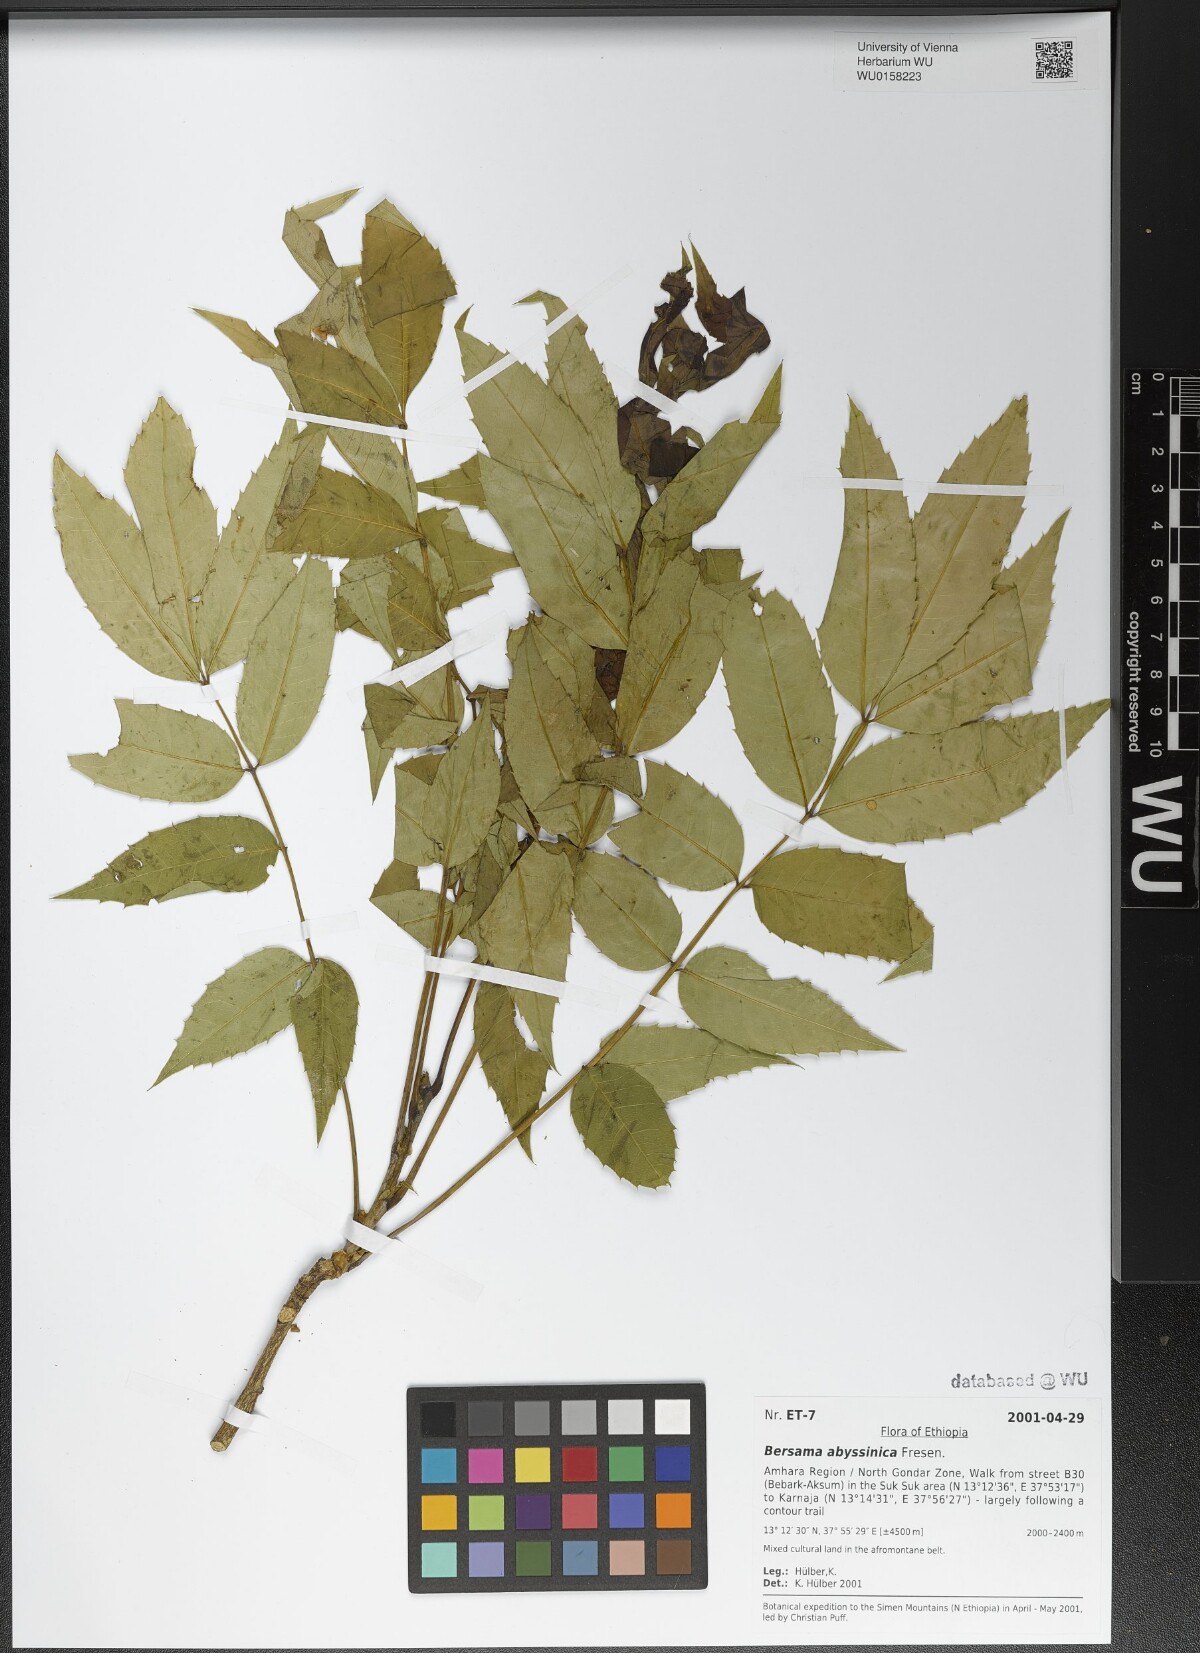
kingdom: Plantae
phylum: Tracheophyta
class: Magnoliopsida
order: Geraniales
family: Melianthaceae
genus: Bersama
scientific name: Bersama abyssinica
